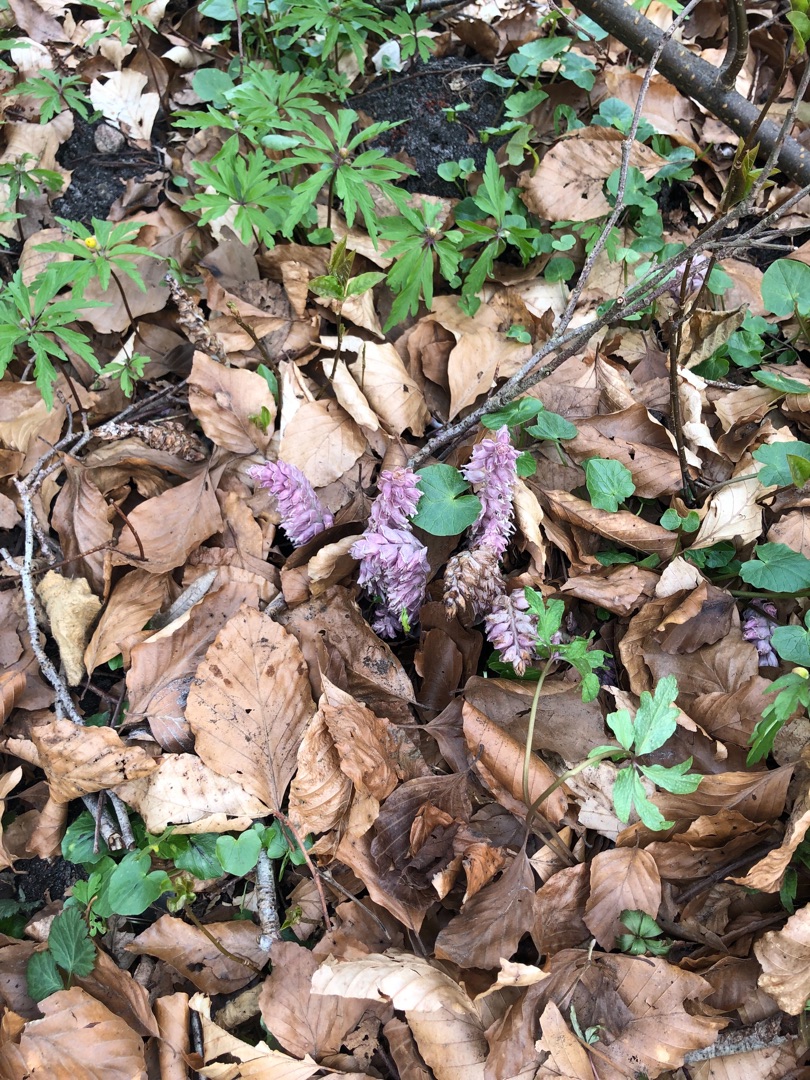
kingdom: Plantae
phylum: Tracheophyta
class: Magnoliopsida
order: Lamiales
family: Orobanchaceae
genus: Lathraea
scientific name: Lathraea squamaria
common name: Skælrod
